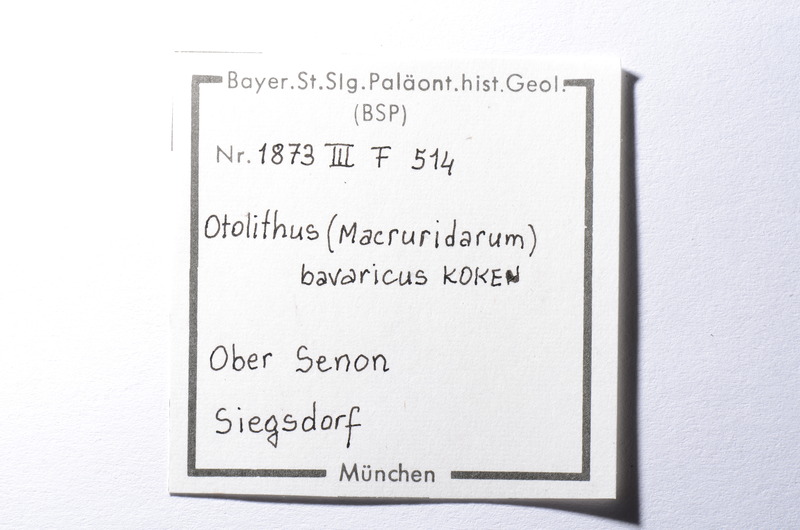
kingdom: Animalia
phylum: Chordata
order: Perciformes
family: Scombridae
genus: Cylindracanthus
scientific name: Cylindracanthus
